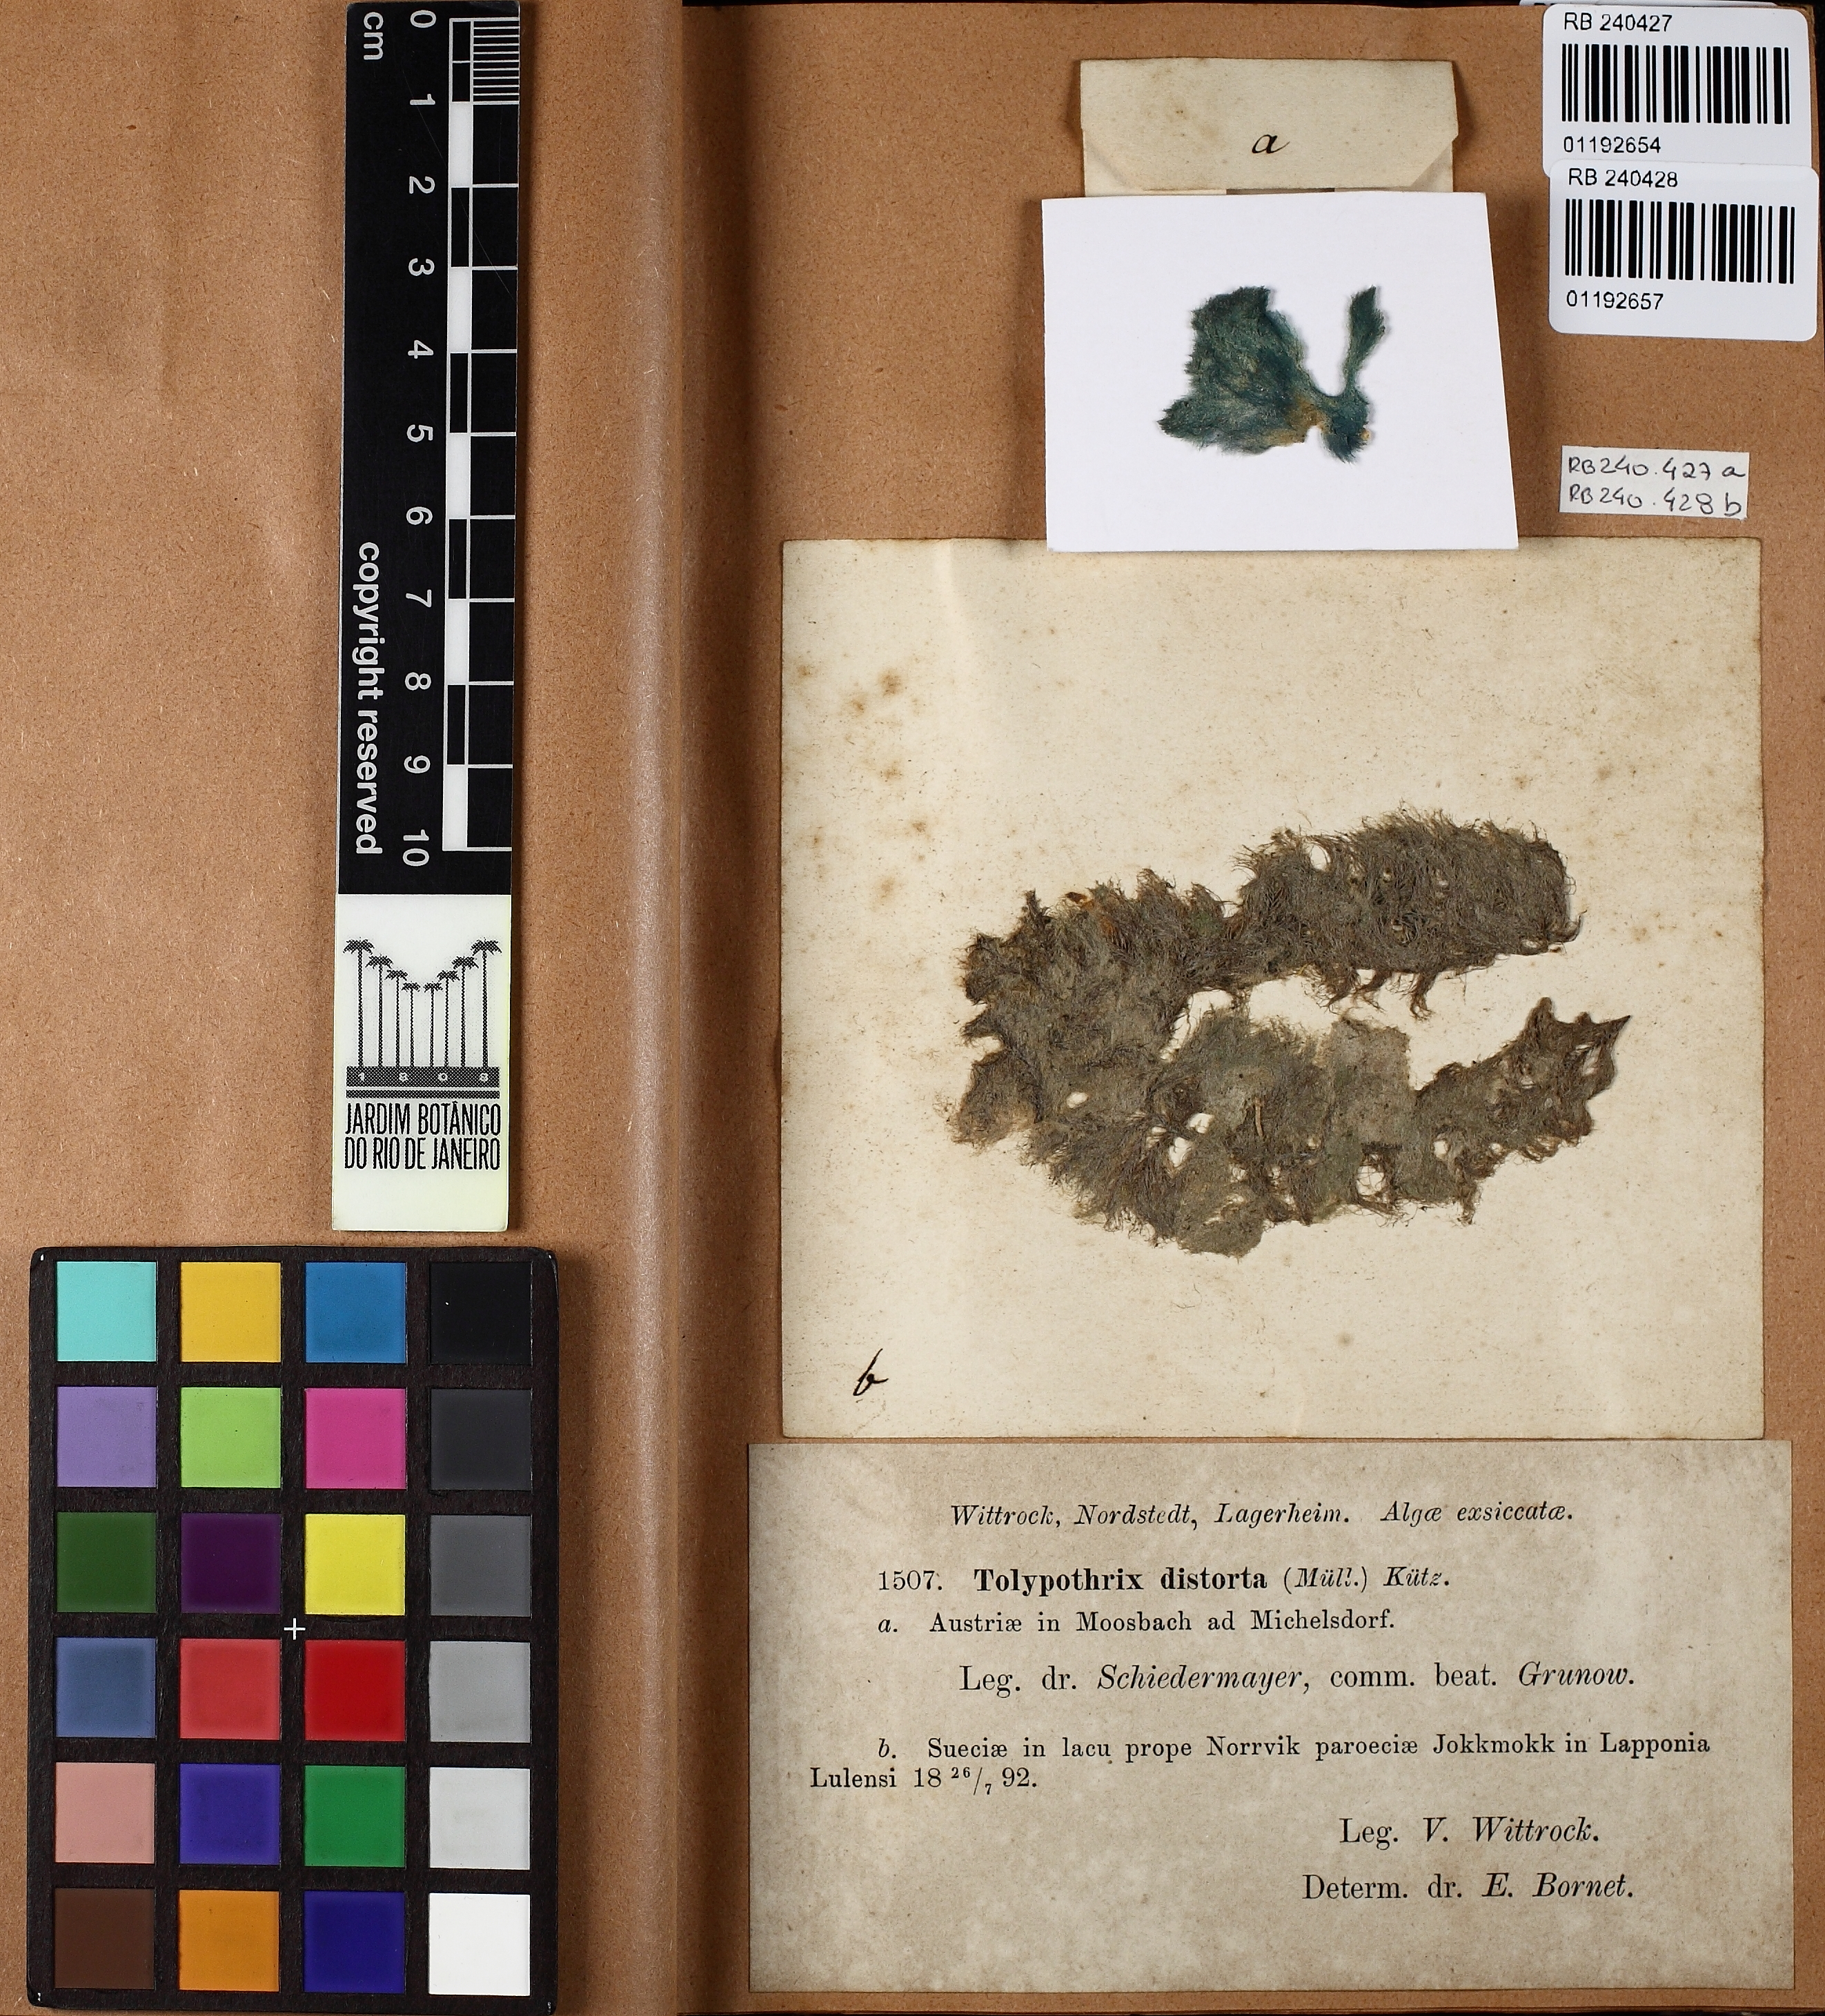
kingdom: Bacteria
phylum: Cyanobacteria
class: Cyanobacteriia
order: Cyanobacteriales
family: Tolypothrichaceae
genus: Tolypothrix
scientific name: Tolypothrix distorta
